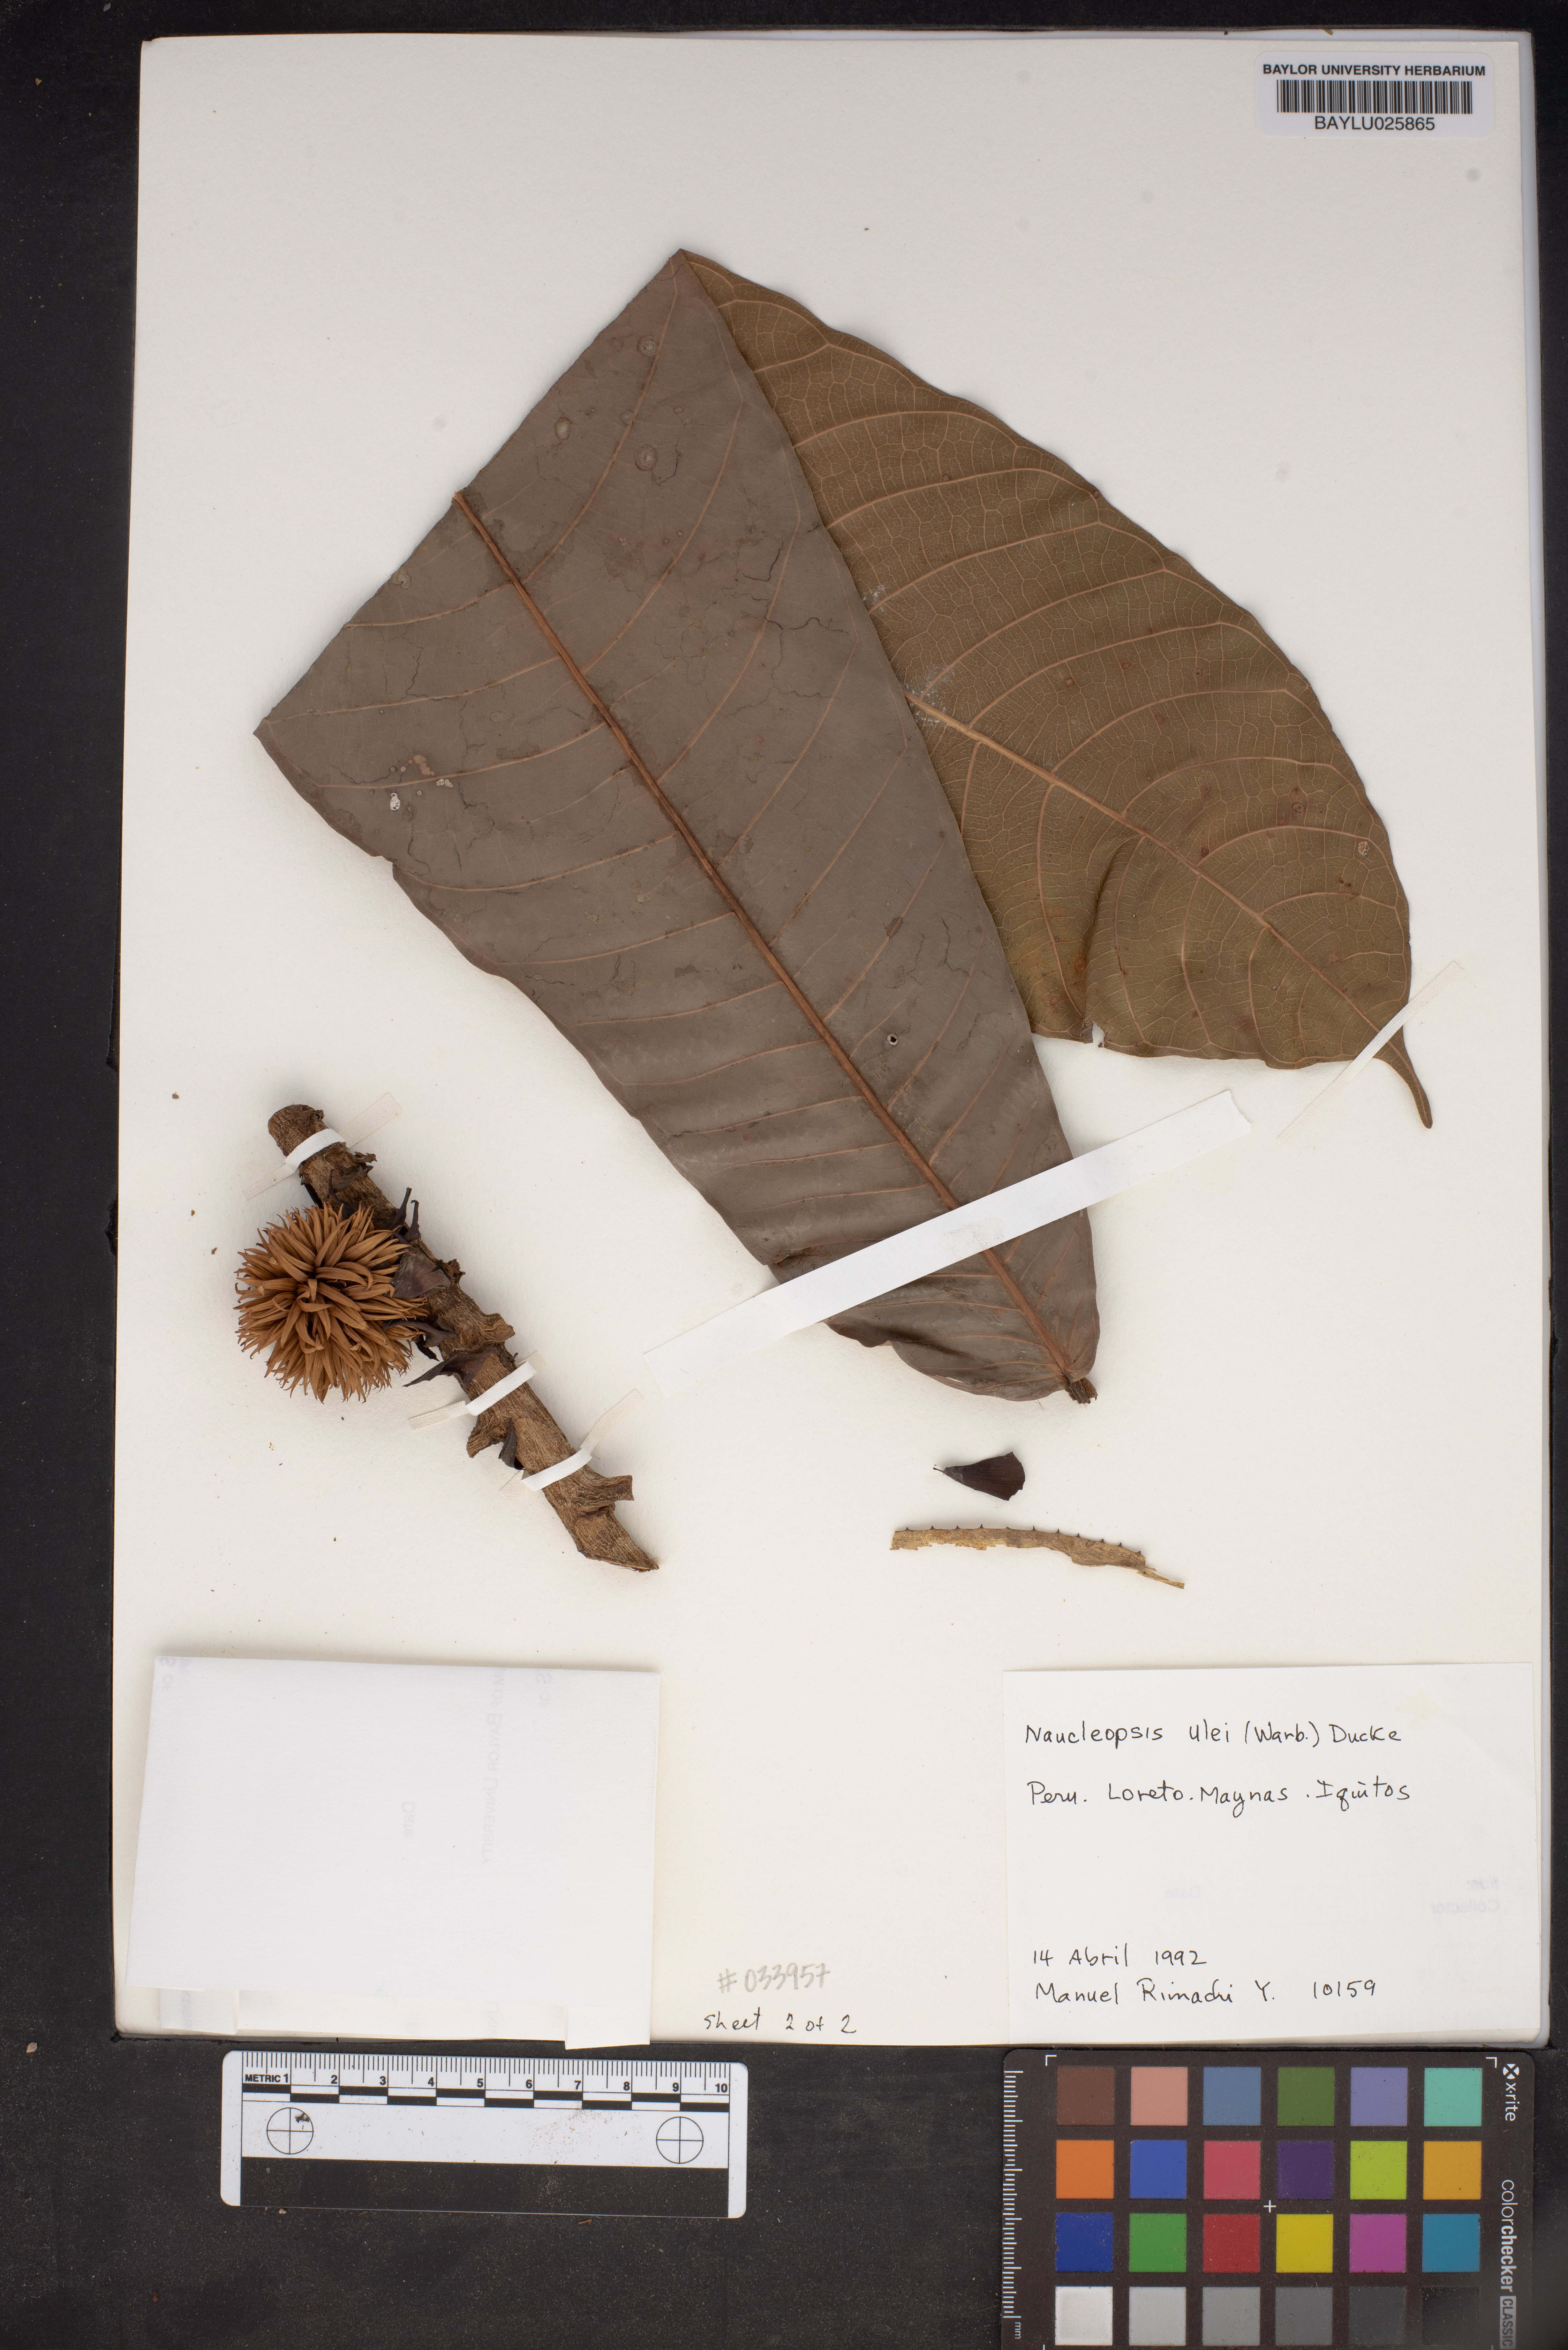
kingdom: Plantae
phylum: Tracheophyta
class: Magnoliopsida
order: Rosales
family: Moraceae
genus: Naucleopsis
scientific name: Naucleopsis ulei
